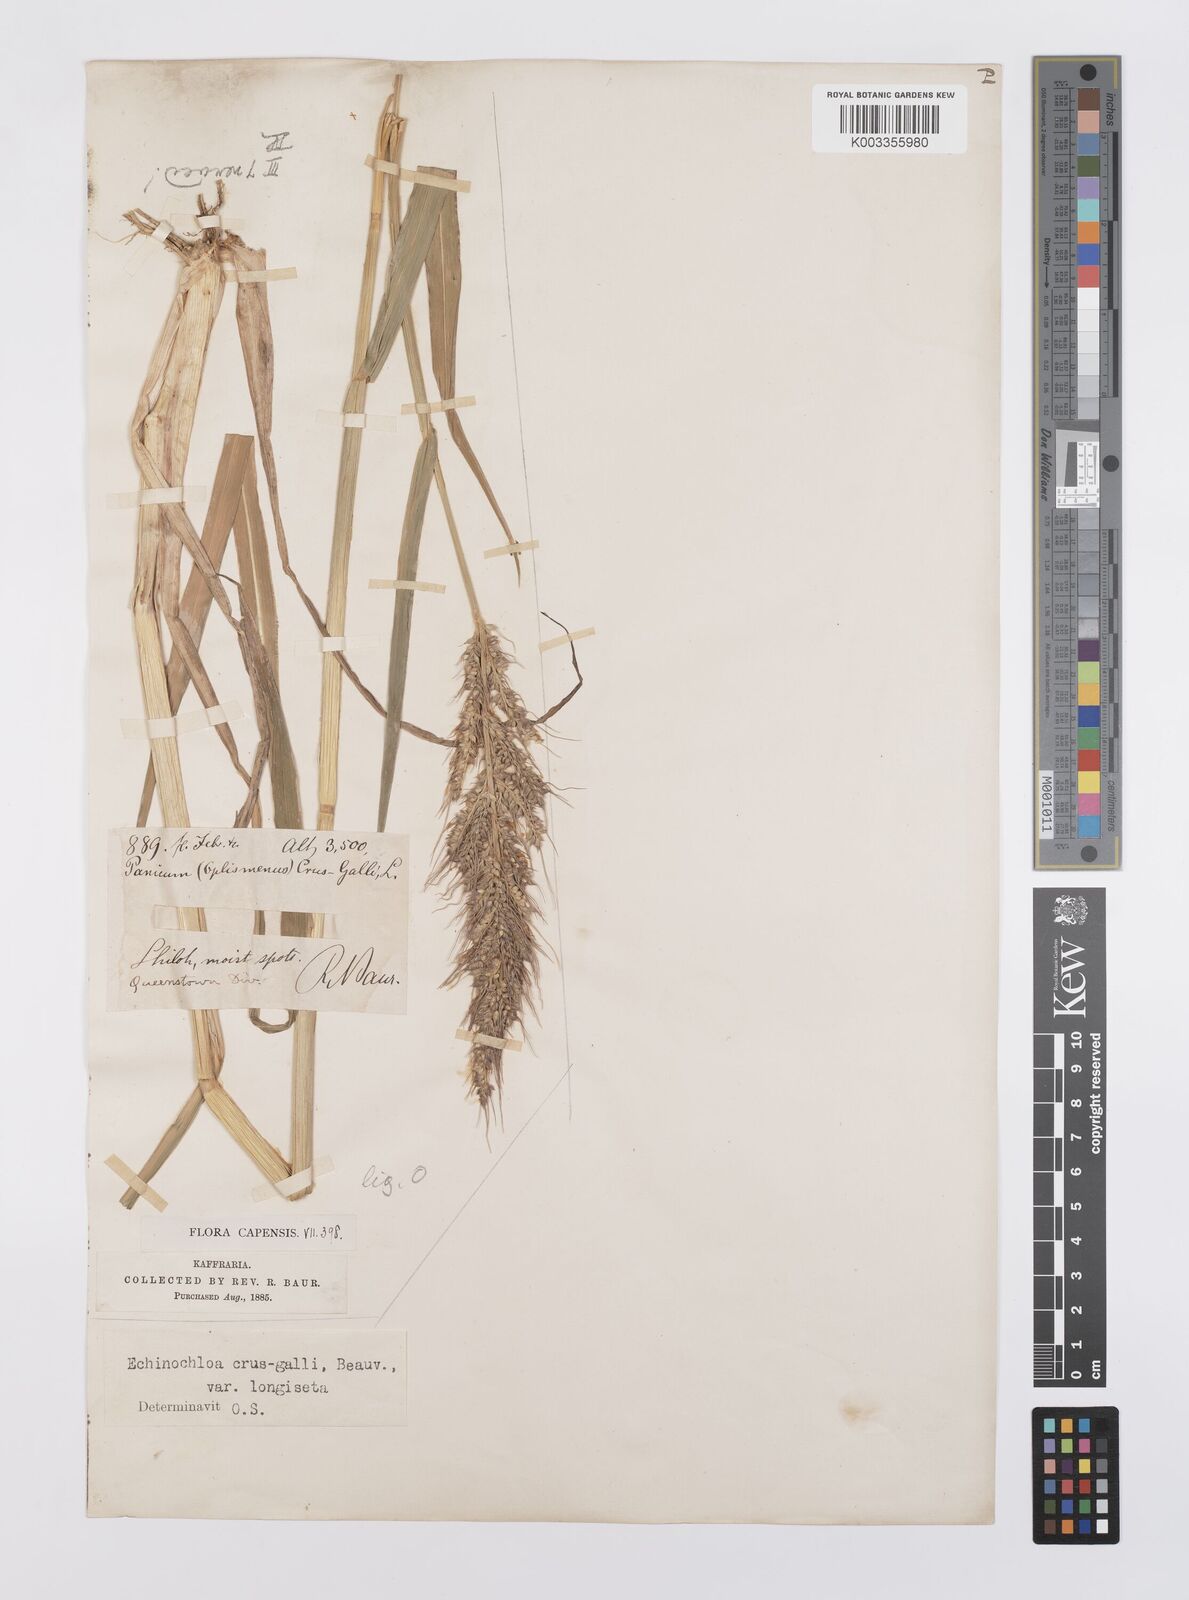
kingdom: Plantae
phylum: Tracheophyta
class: Liliopsida
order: Poales
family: Poaceae
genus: Echinochloa
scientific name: Echinochloa crus-galli
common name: Cockspur
